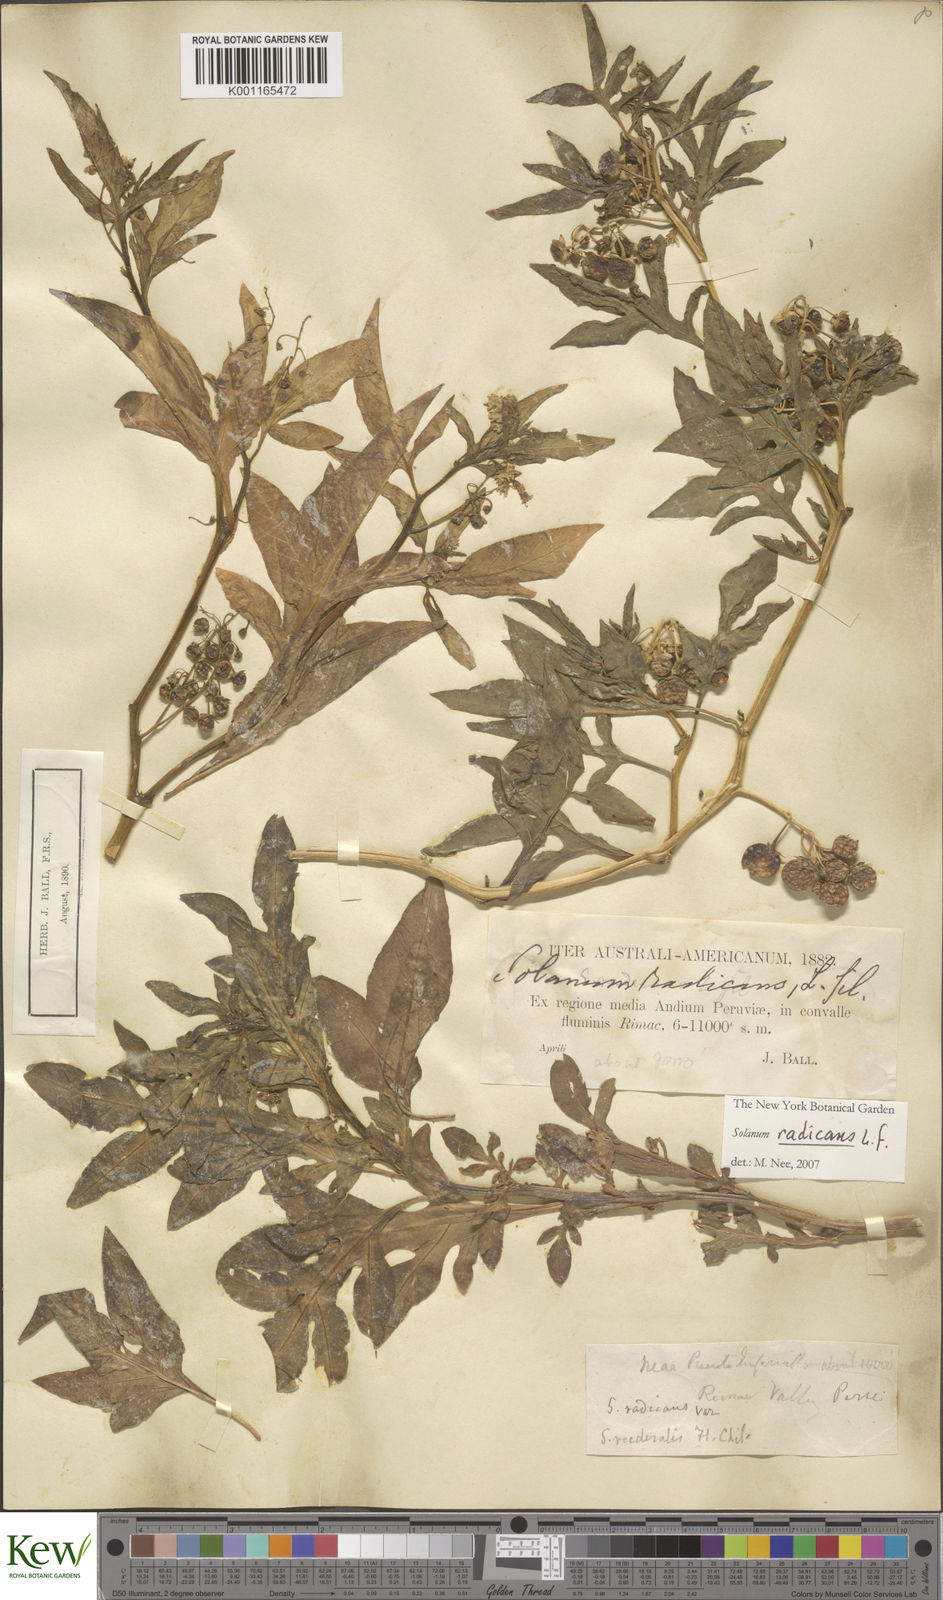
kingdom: Plantae
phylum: Tracheophyta
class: Magnoliopsida
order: Solanales
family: Solanaceae
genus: Solanum
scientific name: Solanum radicans
